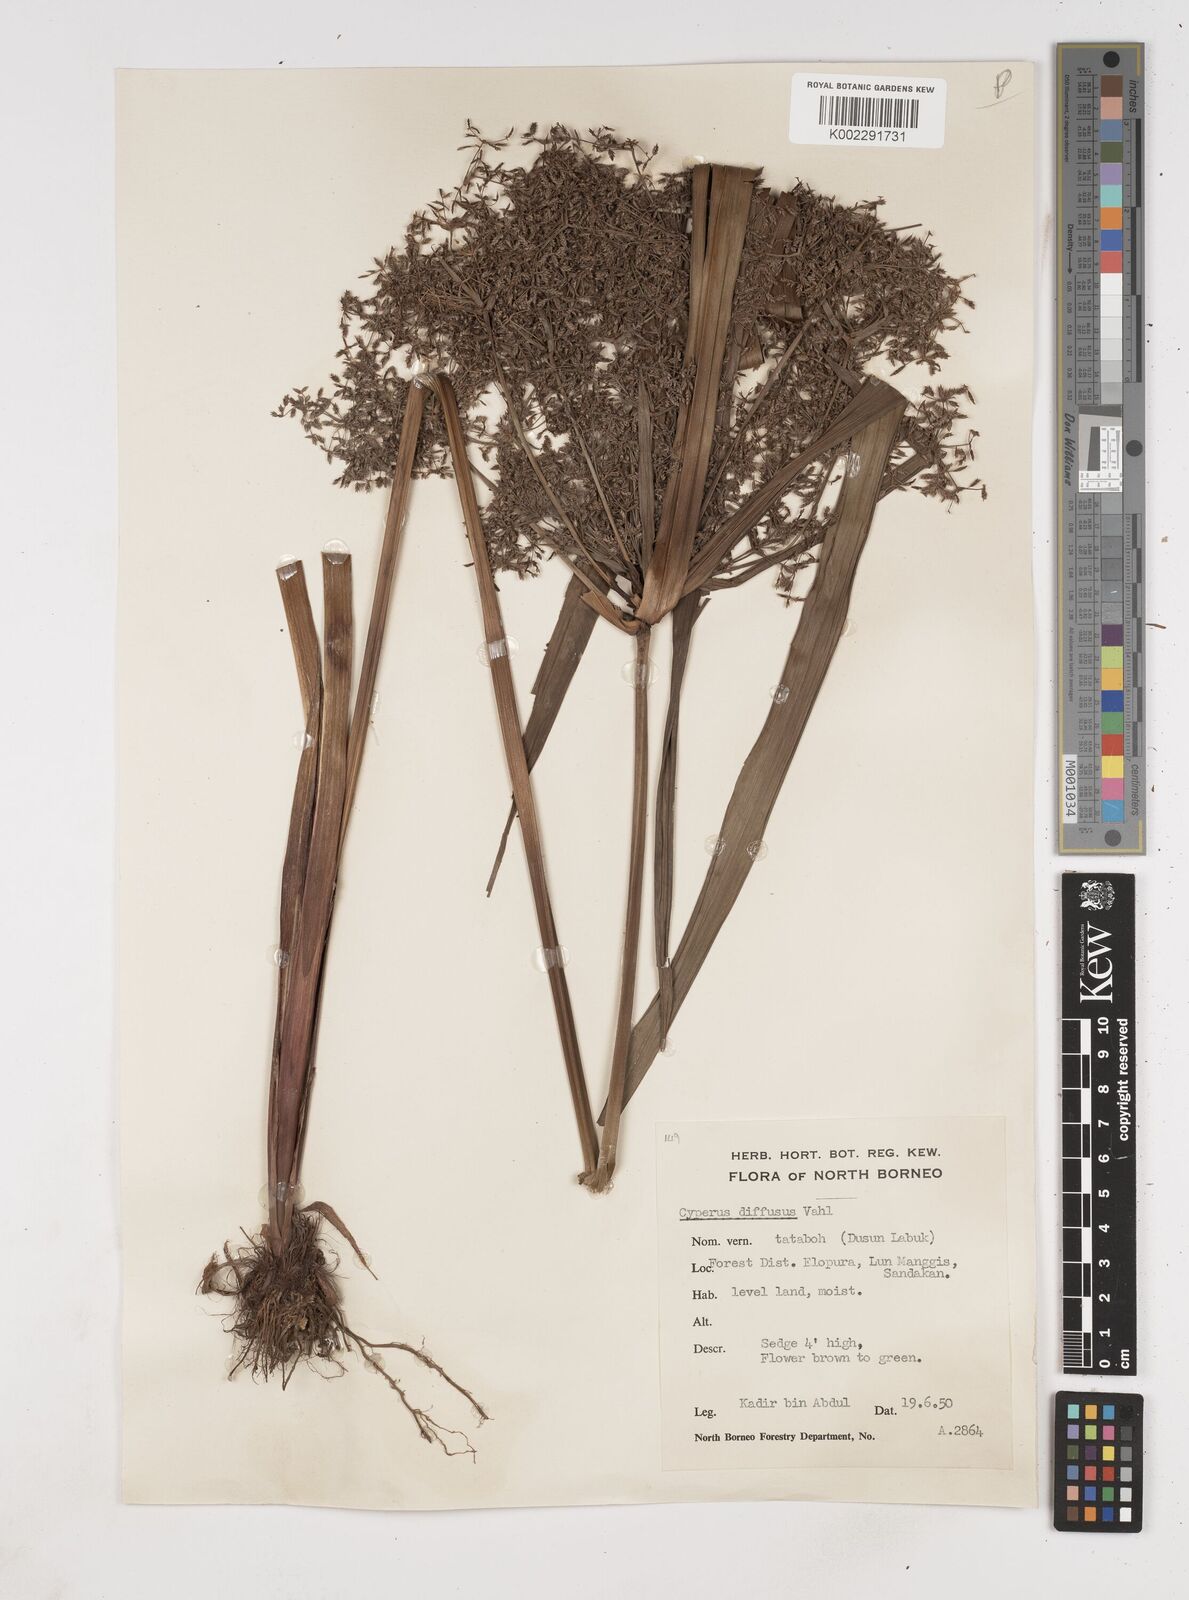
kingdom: Plantae
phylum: Tracheophyta
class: Liliopsida
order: Poales
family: Cyperaceae
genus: Cyperus
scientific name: Cyperus diffusus
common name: Dwarf umbrella grass
